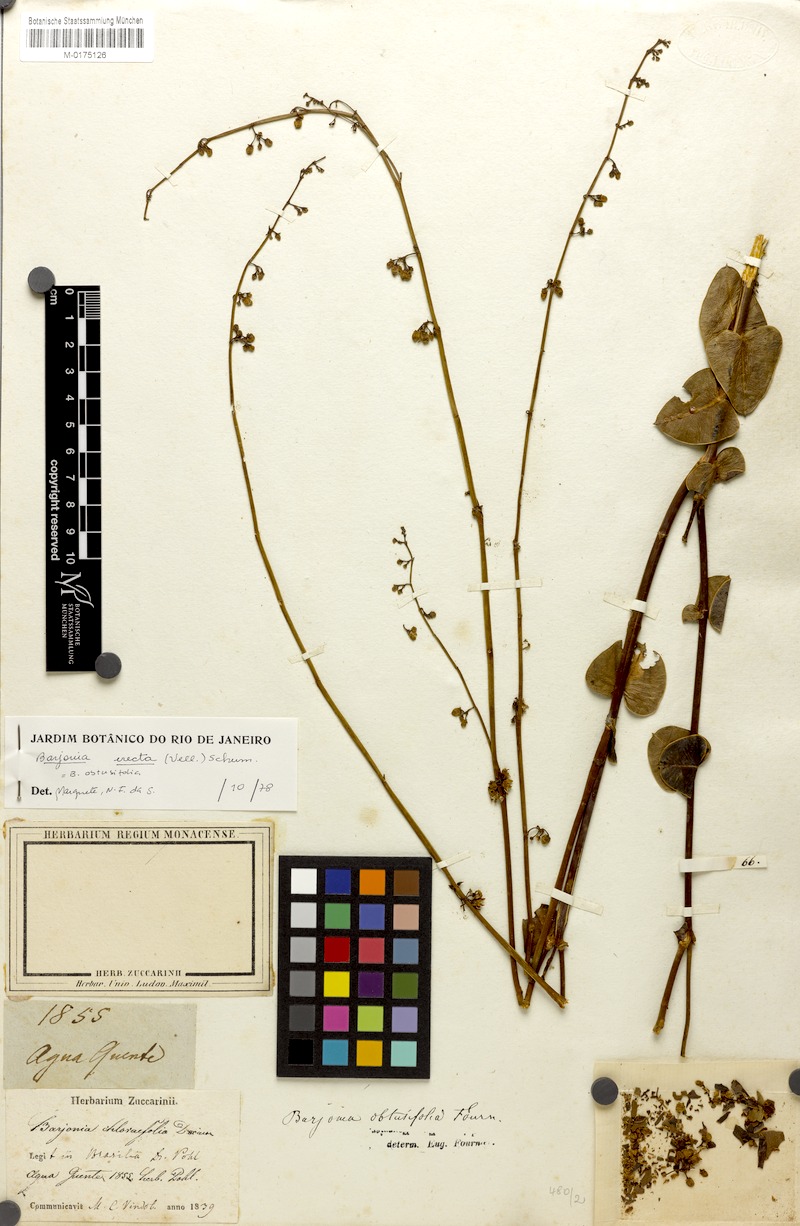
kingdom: Plantae
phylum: Tracheophyta
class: Magnoliopsida
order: Gentianales
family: Apocynaceae
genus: Barjonia
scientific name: Barjonia erecta
